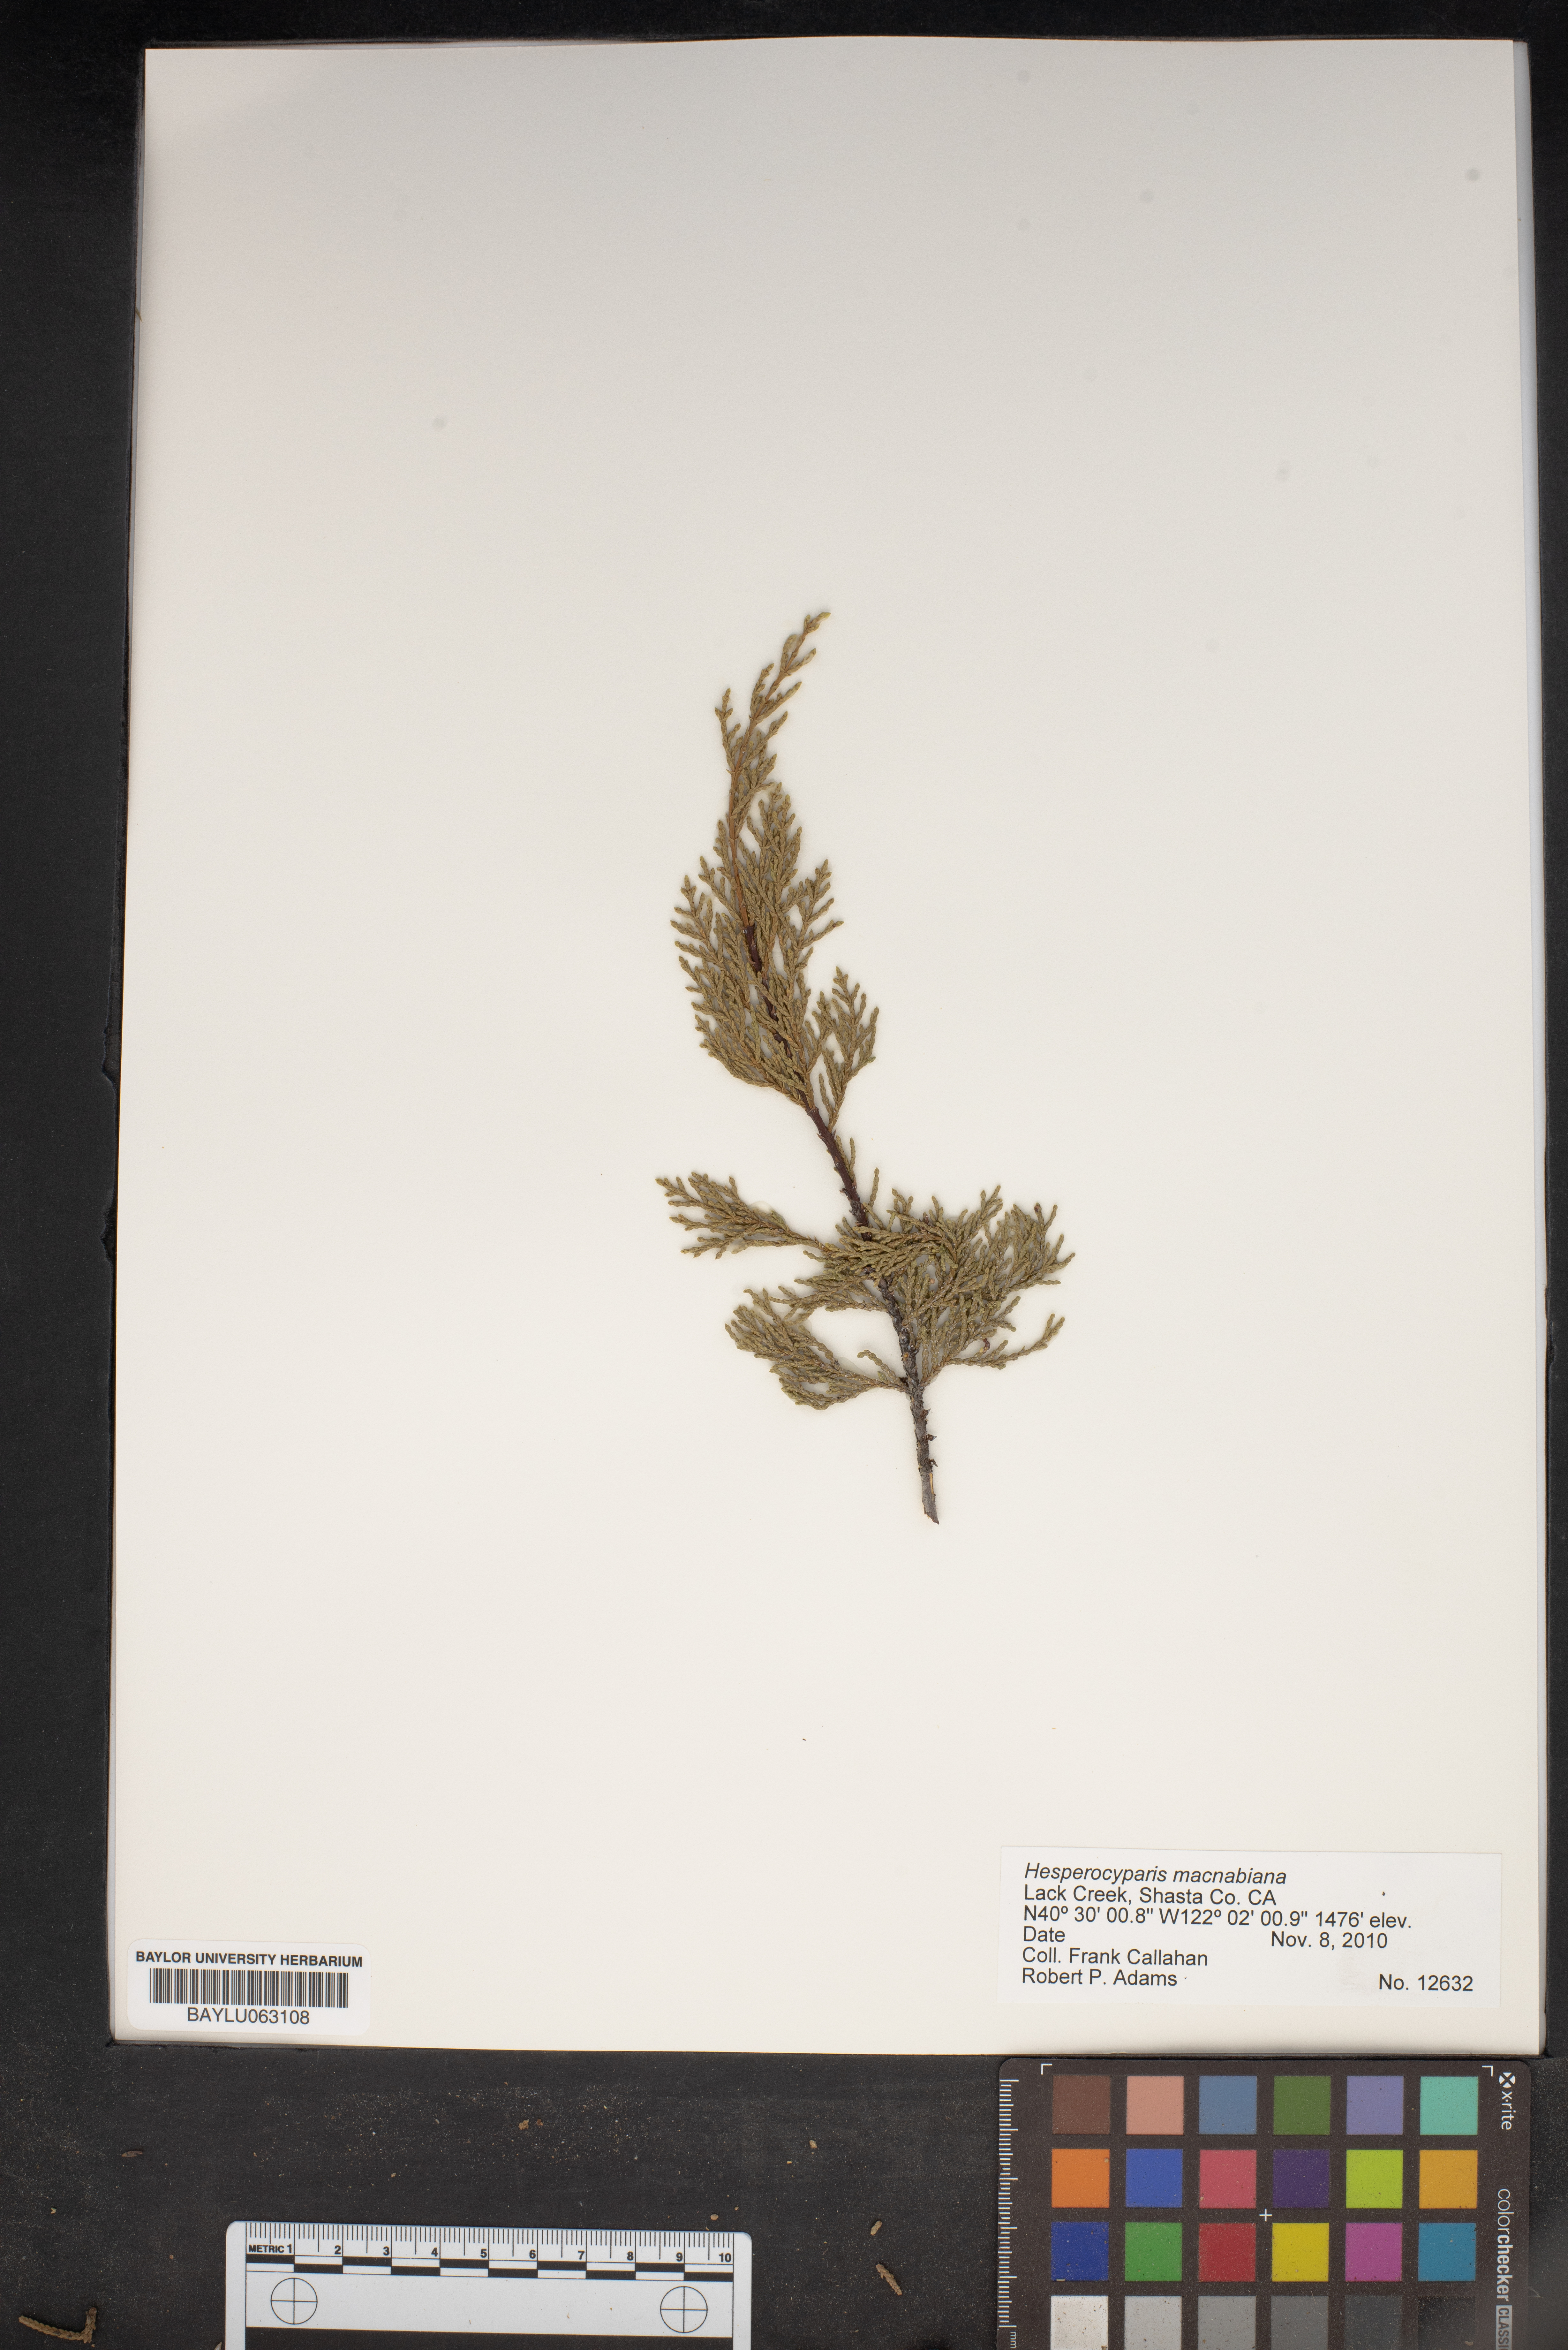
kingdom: Plantae
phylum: Tracheophyta
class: Pinopsida
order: Pinales
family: Cupressaceae
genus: Cupressus
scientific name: Cupressus macnabiana bis
